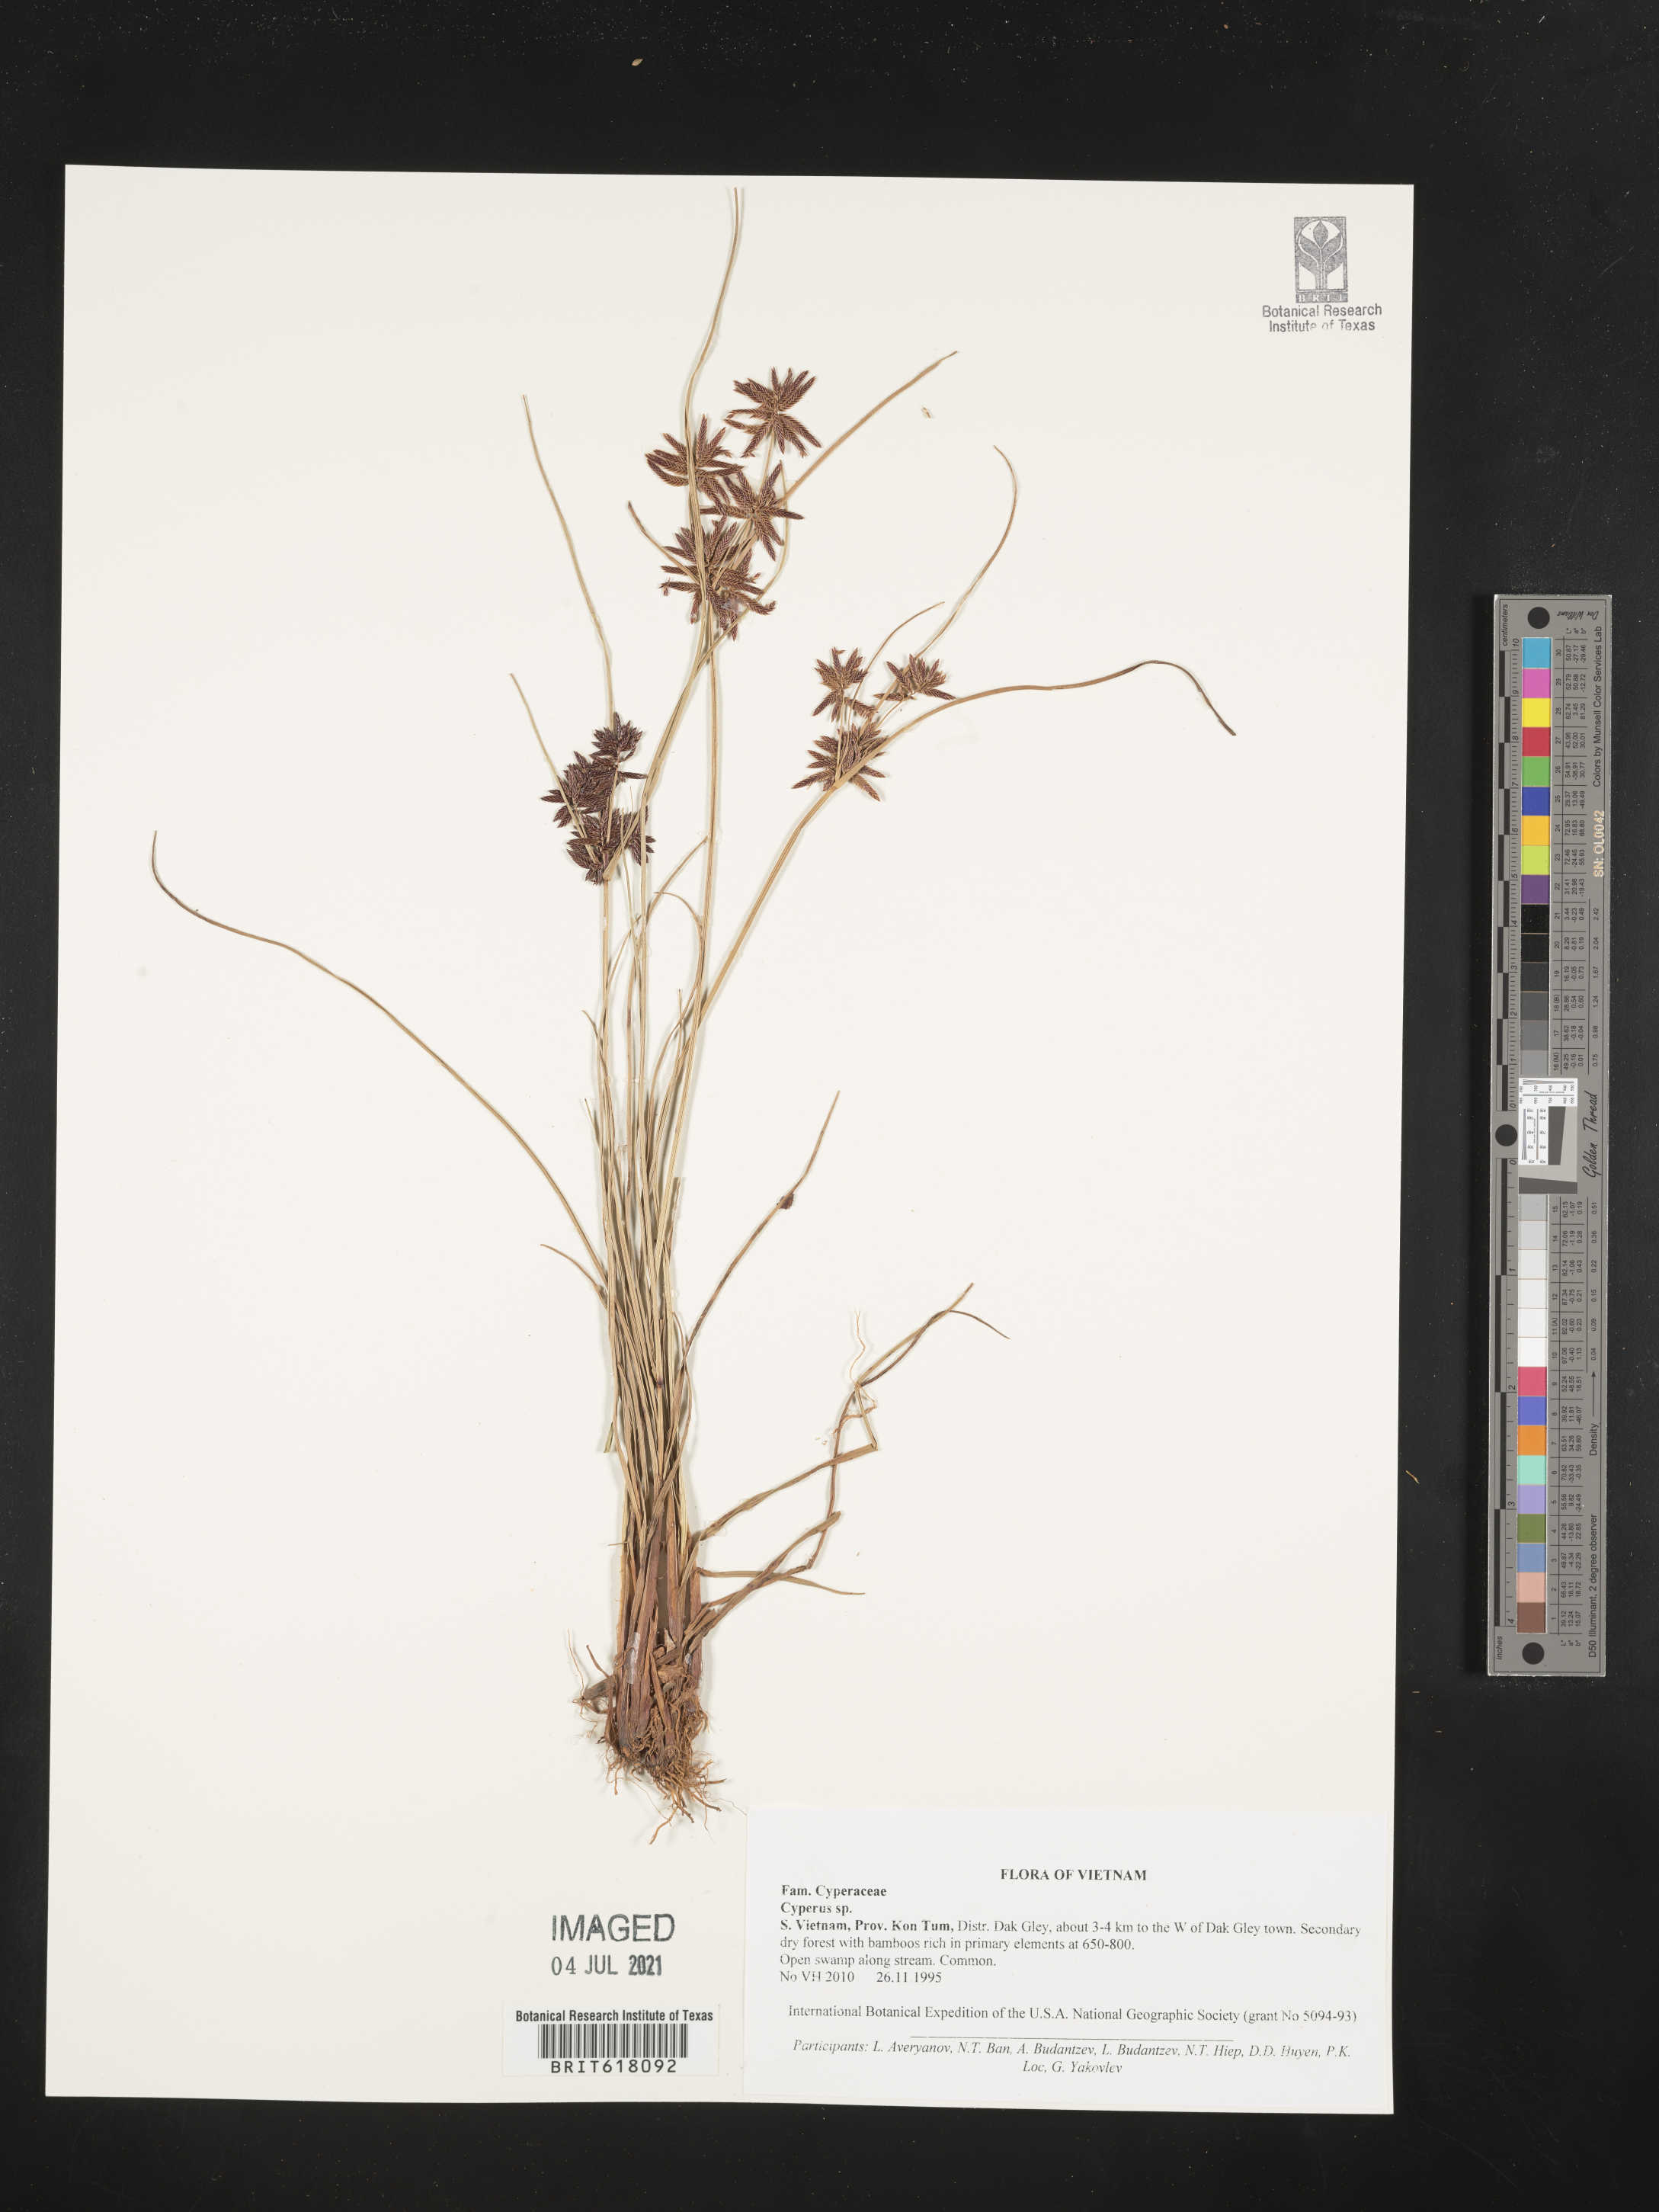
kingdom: Plantae
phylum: Tracheophyta
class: Liliopsida
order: Poales
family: Cyperaceae
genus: Cyperus
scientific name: Cyperus
